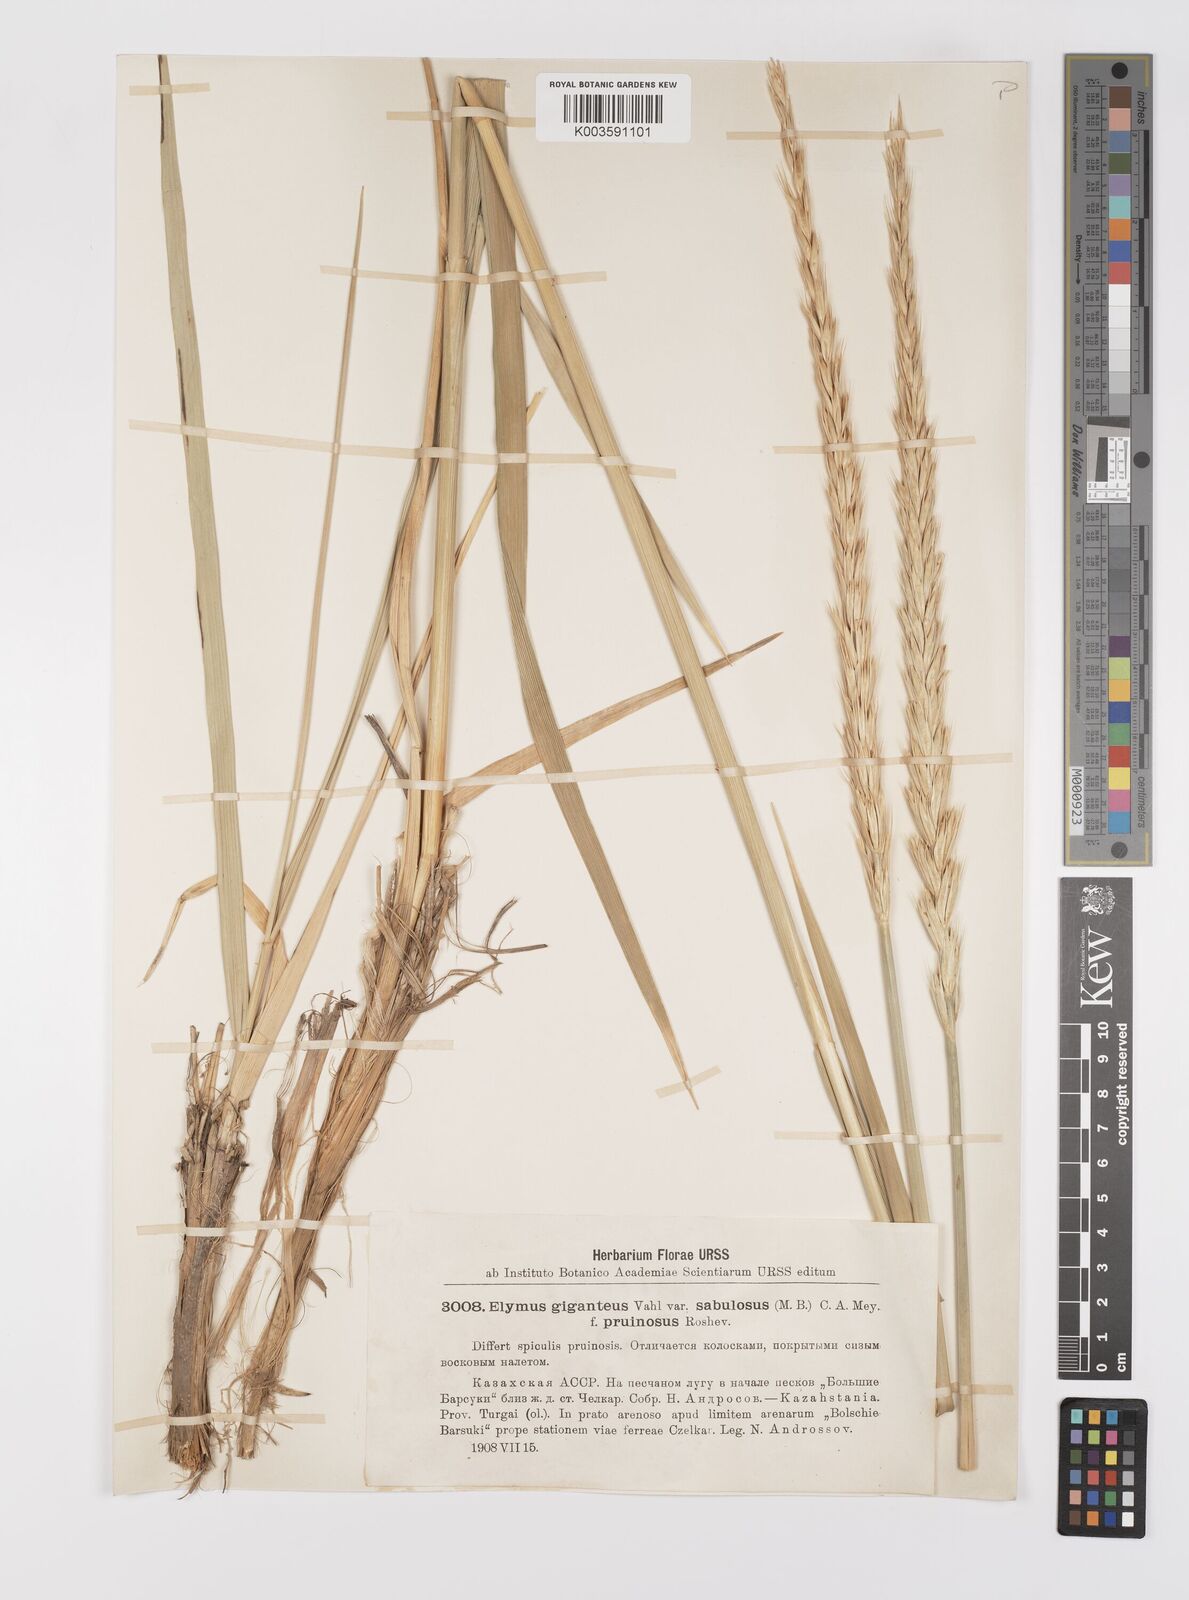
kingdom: Plantae
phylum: Tracheophyta
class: Liliopsida
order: Poales
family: Poaceae
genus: Leymus
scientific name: Leymus racemosus
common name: Mammoth wildrye
